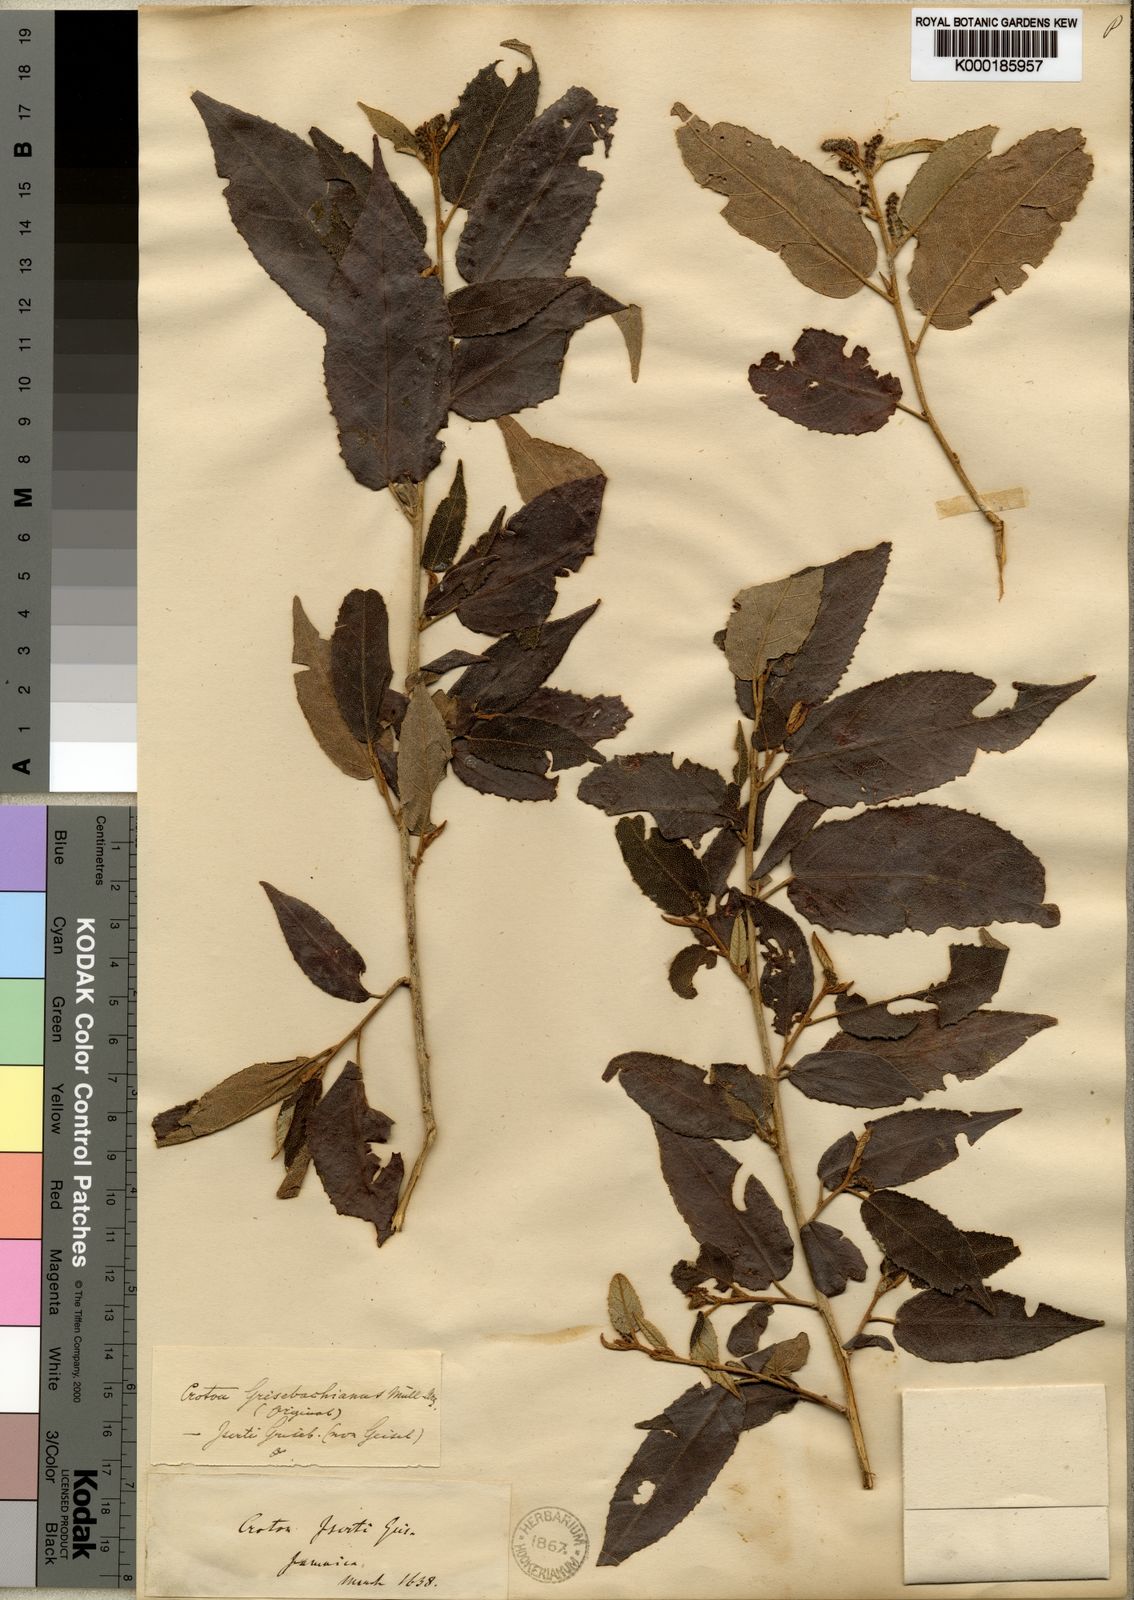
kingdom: Plantae
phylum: Tracheophyta
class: Magnoliopsida
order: Malpighiales
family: Euphorbiaceae
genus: Croton
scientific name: Croton
